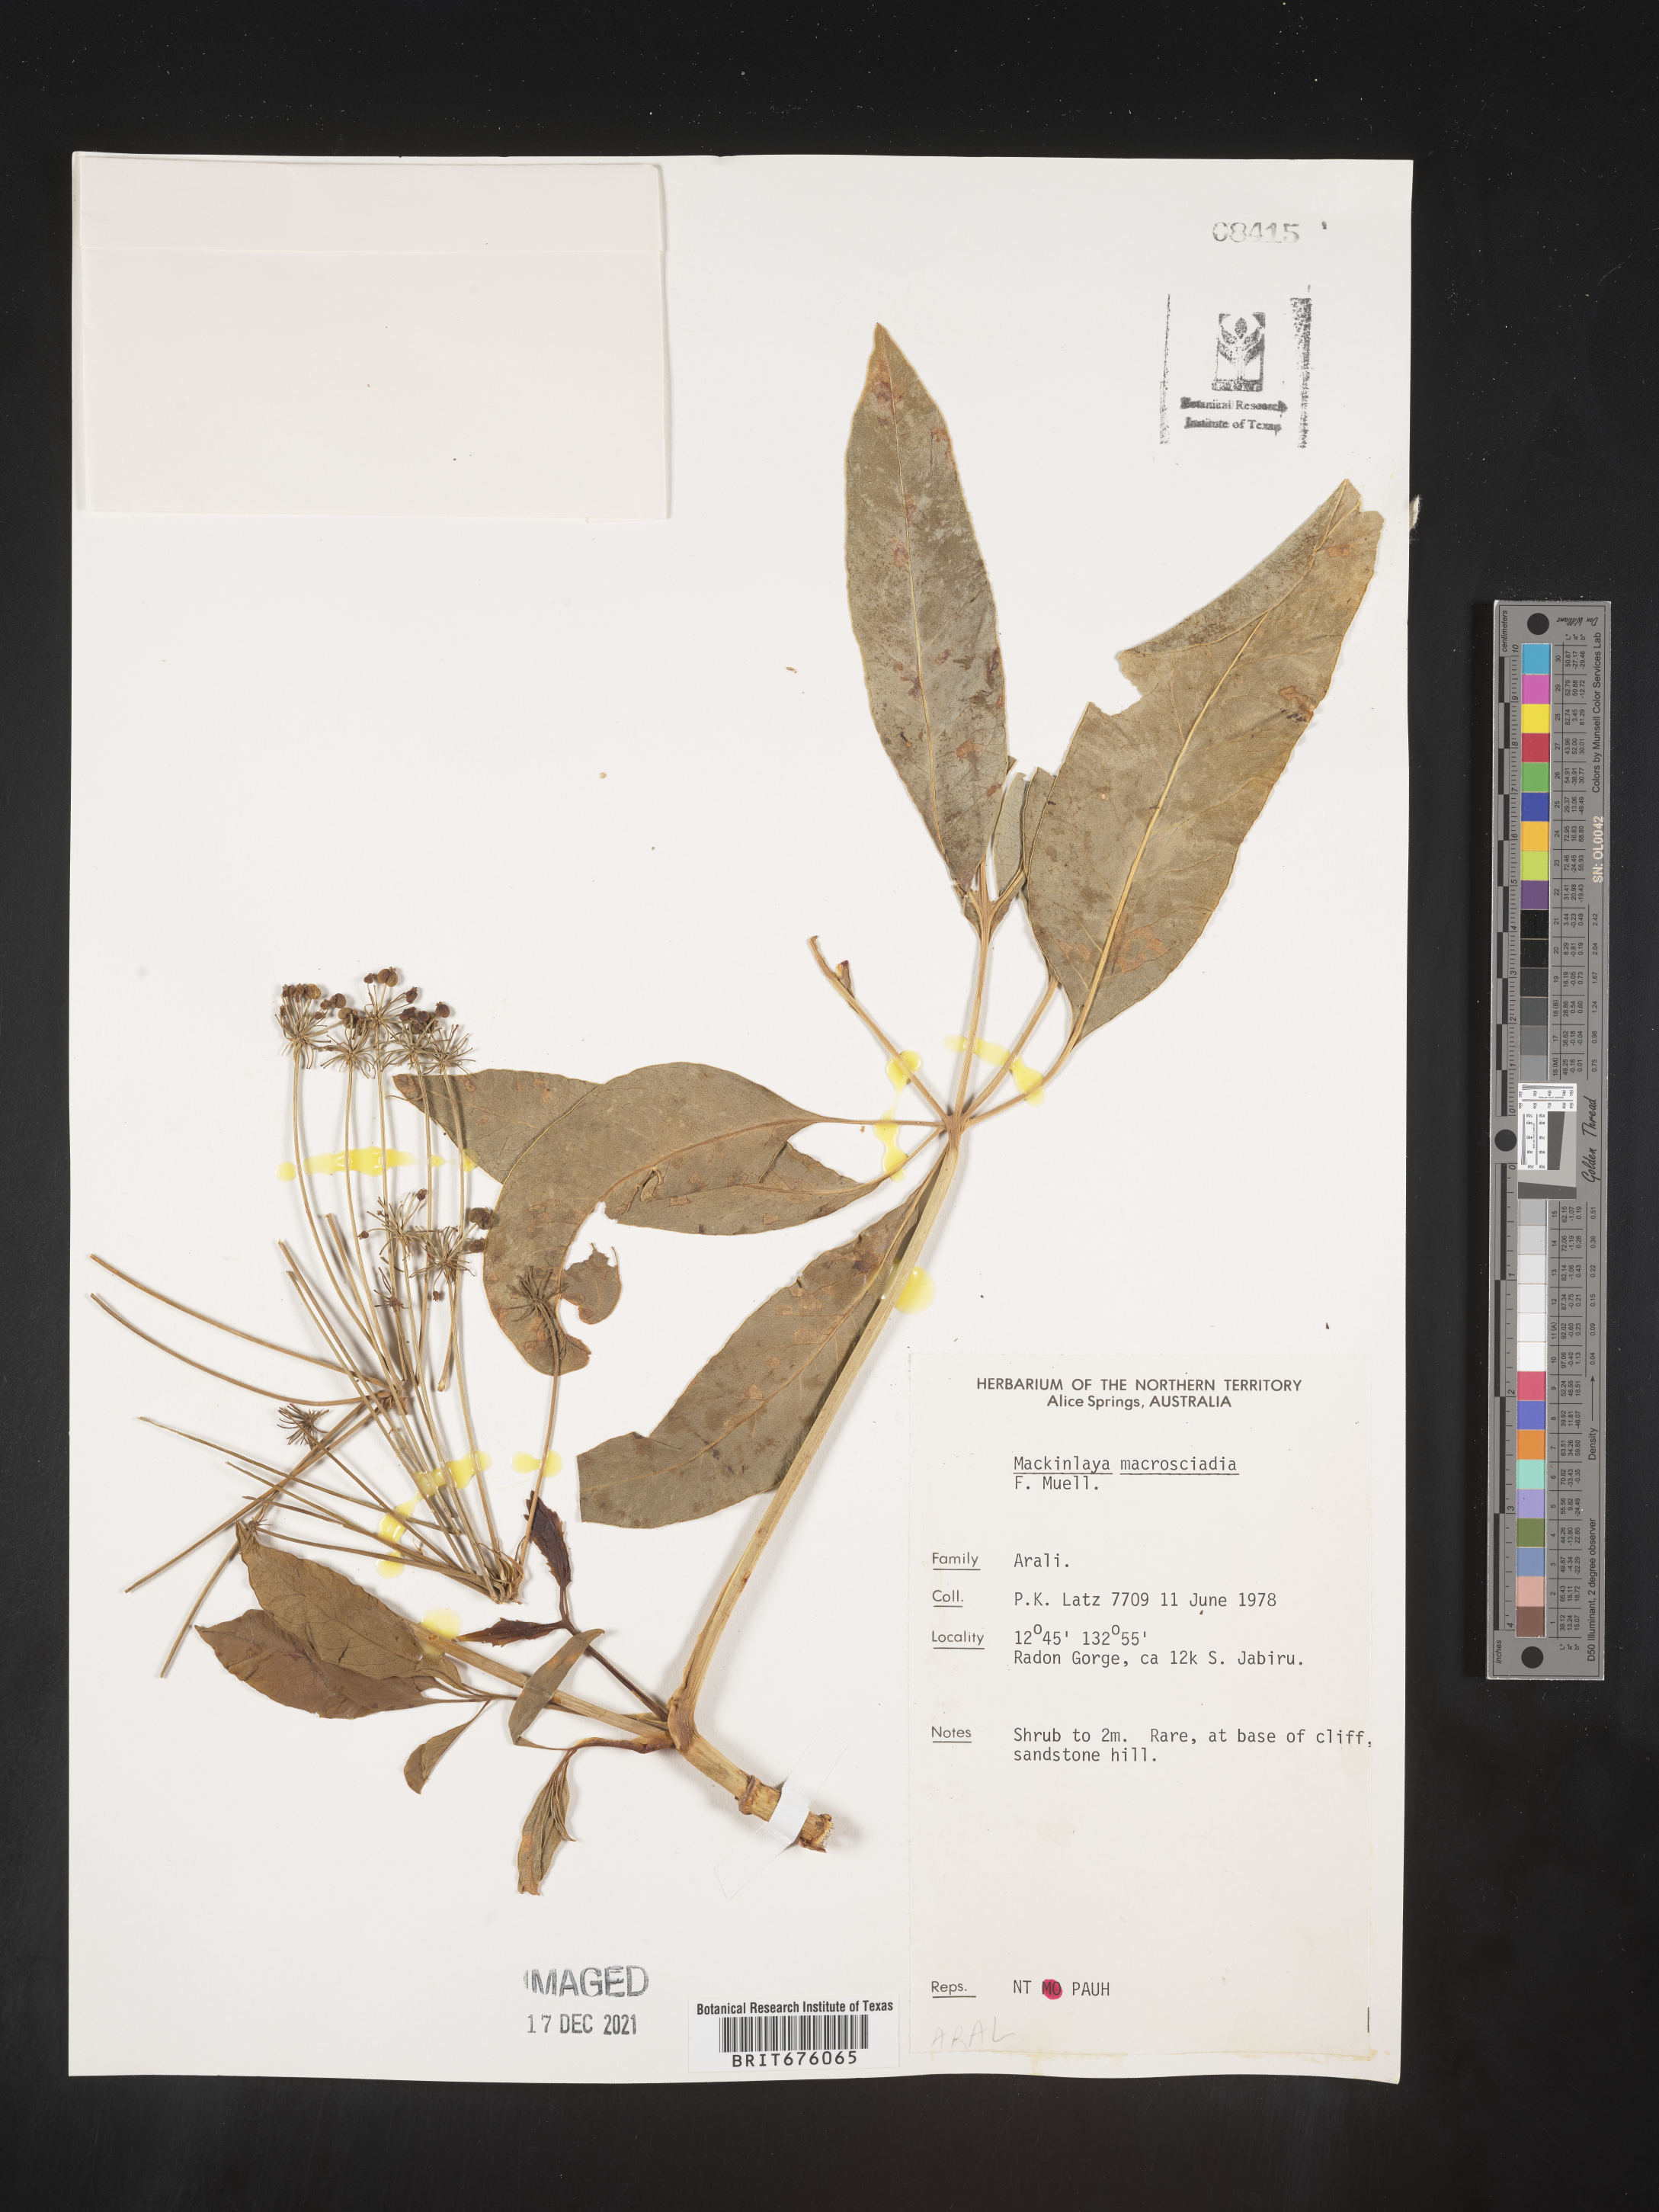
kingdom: Plantae
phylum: Tracheophyta
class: Magnoliopsida
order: Apiales
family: Apiaceae
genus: Mackinlaya
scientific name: Mackinlaya
